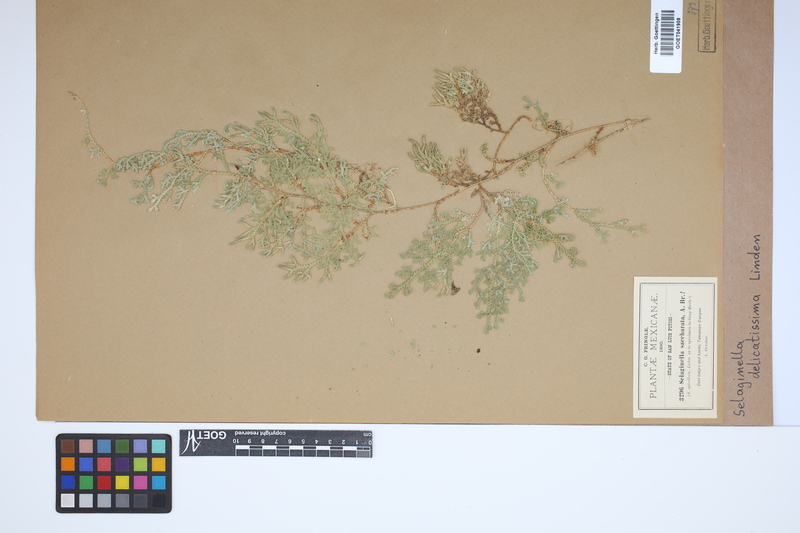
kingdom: Plantae
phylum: Tracheophyta
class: Lycopodiopsida
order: Selaginellales
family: Selaginellaceae
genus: Selaginella
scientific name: Selaginella delicatissima
